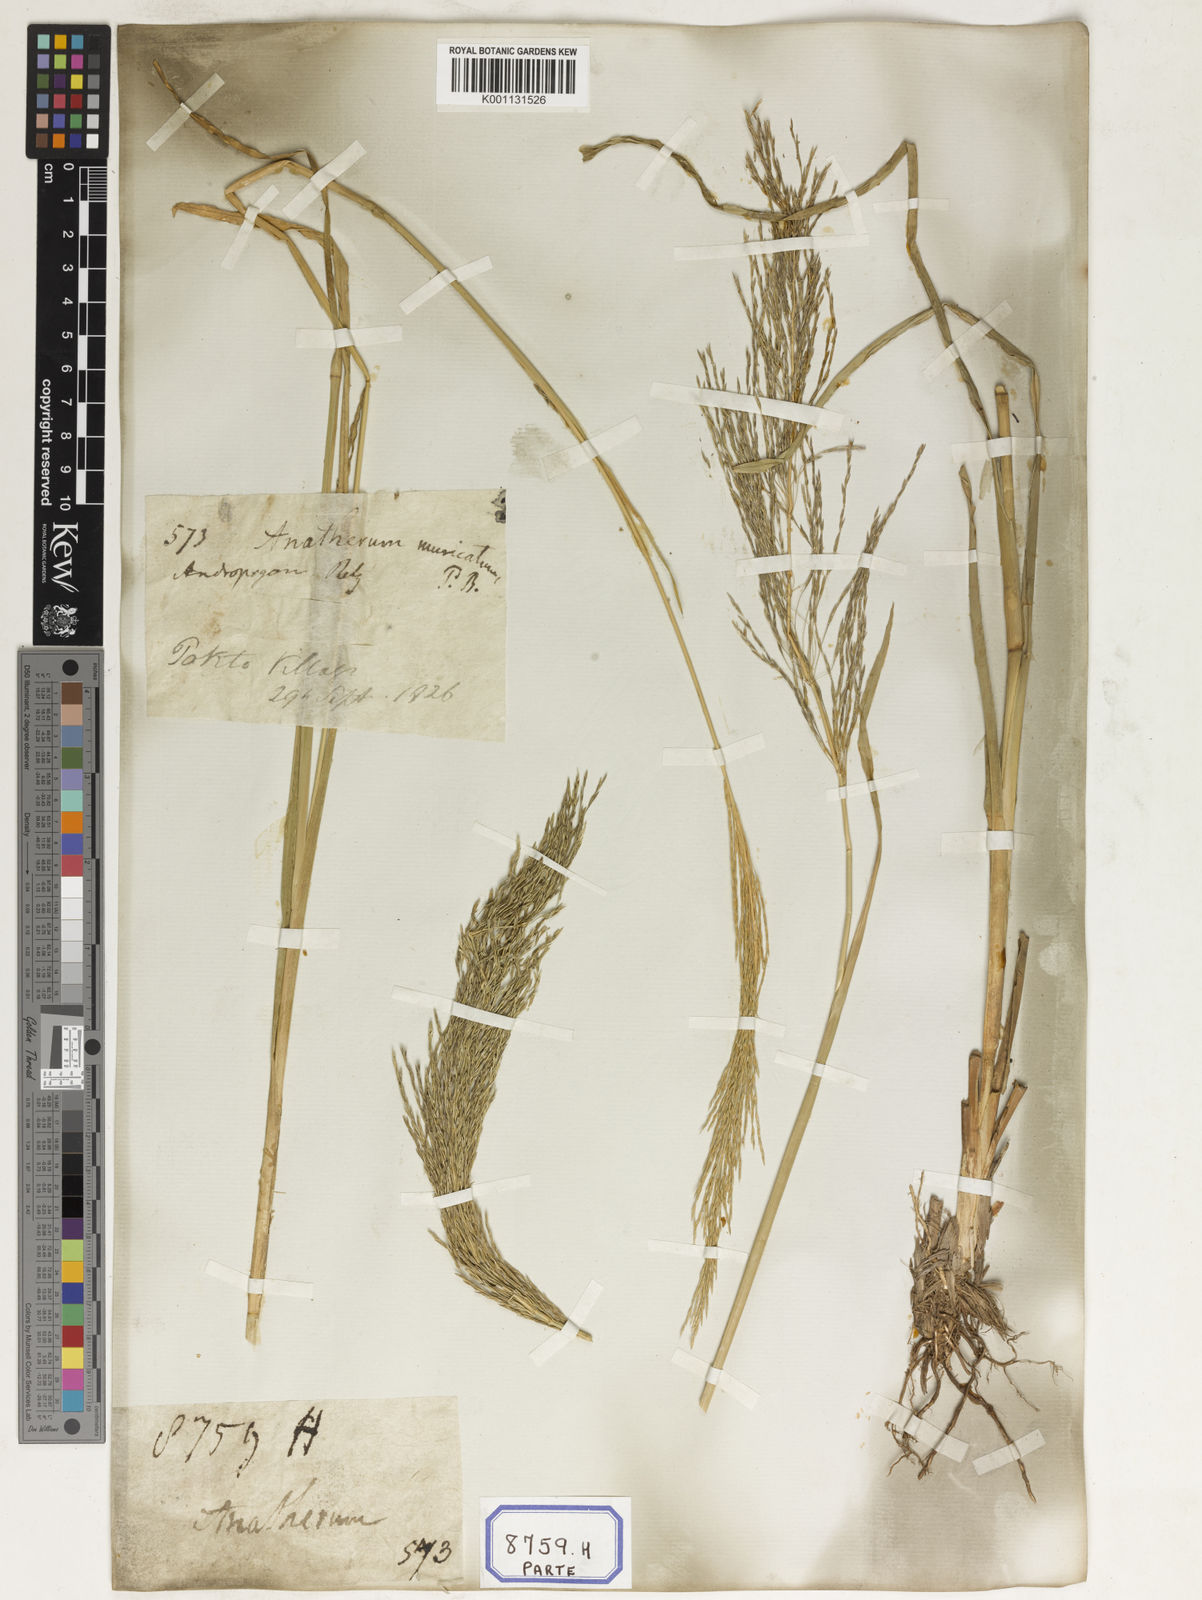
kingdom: Plantae
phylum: Tracheophyta
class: Liliopsida
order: Poales
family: Poaceae
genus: Chrysopogon
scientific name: Chrysopogon zizanioides
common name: False beardgrass
